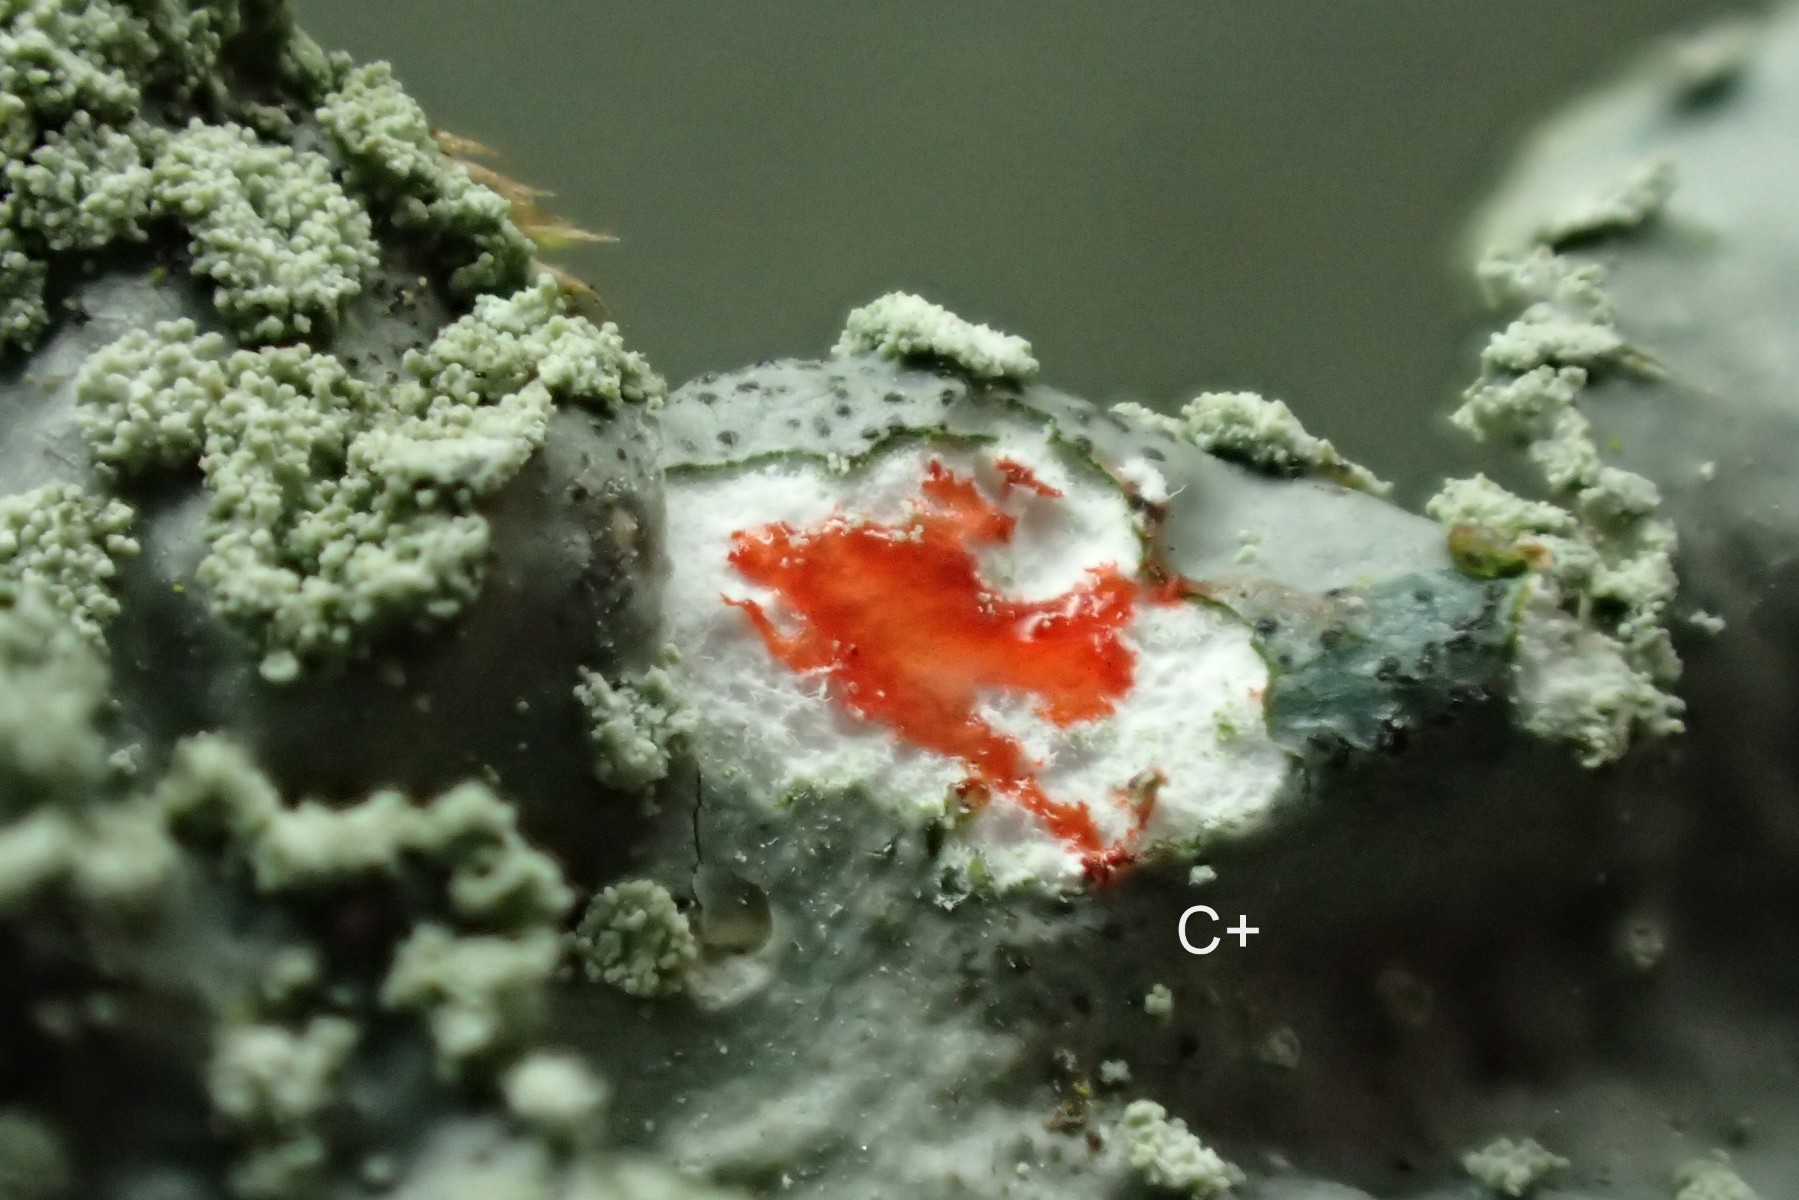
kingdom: Fungi
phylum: Ascomycota
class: Lecanoromycetes
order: Lecanorales
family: Parmeliaceae
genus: Punctelia
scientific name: Punctelia subrudecta
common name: punkt-skållav
